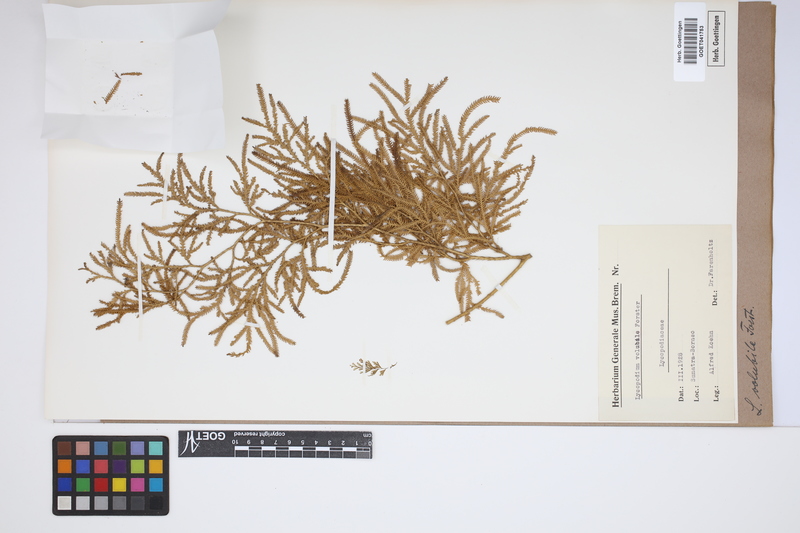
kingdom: Plantae
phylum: Tracheophyta
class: Lycopodiopsida
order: Lycopodiales
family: Lycopodiaceae
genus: Pseudodiphasium
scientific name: Pseudodiphasium volubile
